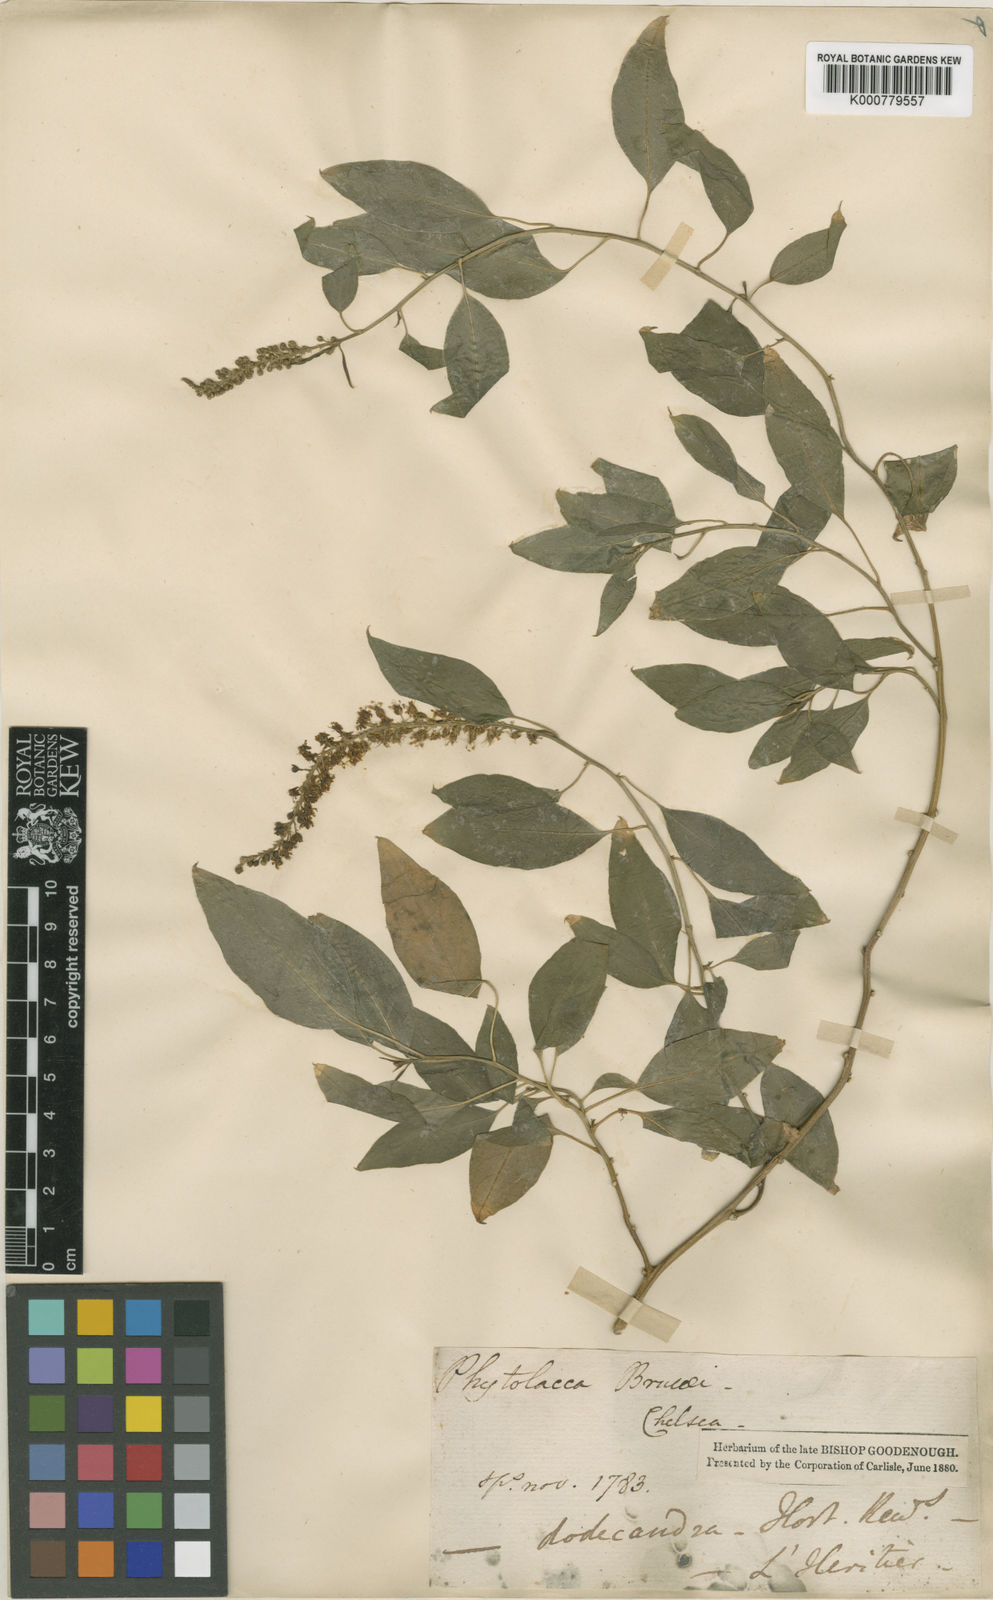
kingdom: Plantae
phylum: Tracheophyta
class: Magnoliopsida
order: Caryophyllales
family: Phytolaccaceae
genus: Phytolacca
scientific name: Phytolacca
